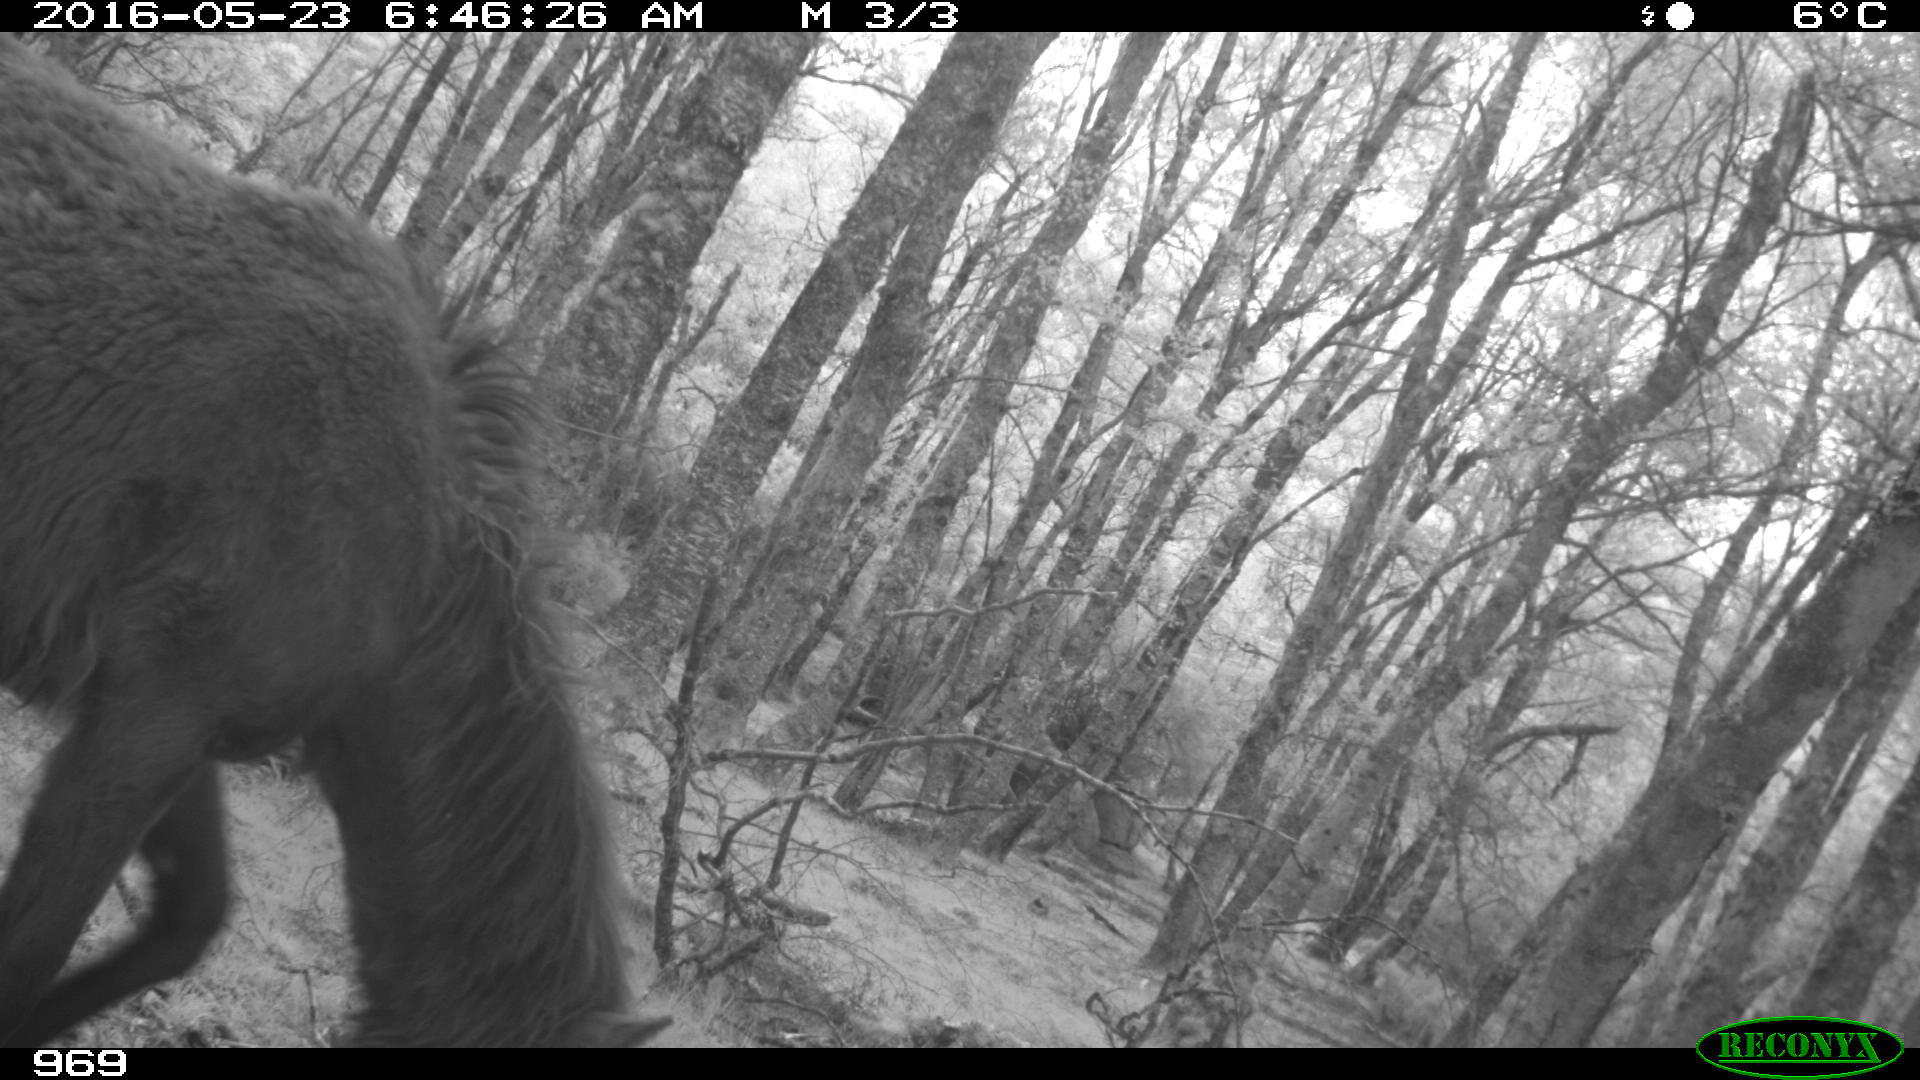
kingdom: Animalia
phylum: Chordata
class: Mammalia
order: Perissodactyla
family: Equidae
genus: Equus
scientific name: Equus caballus
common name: Horse
